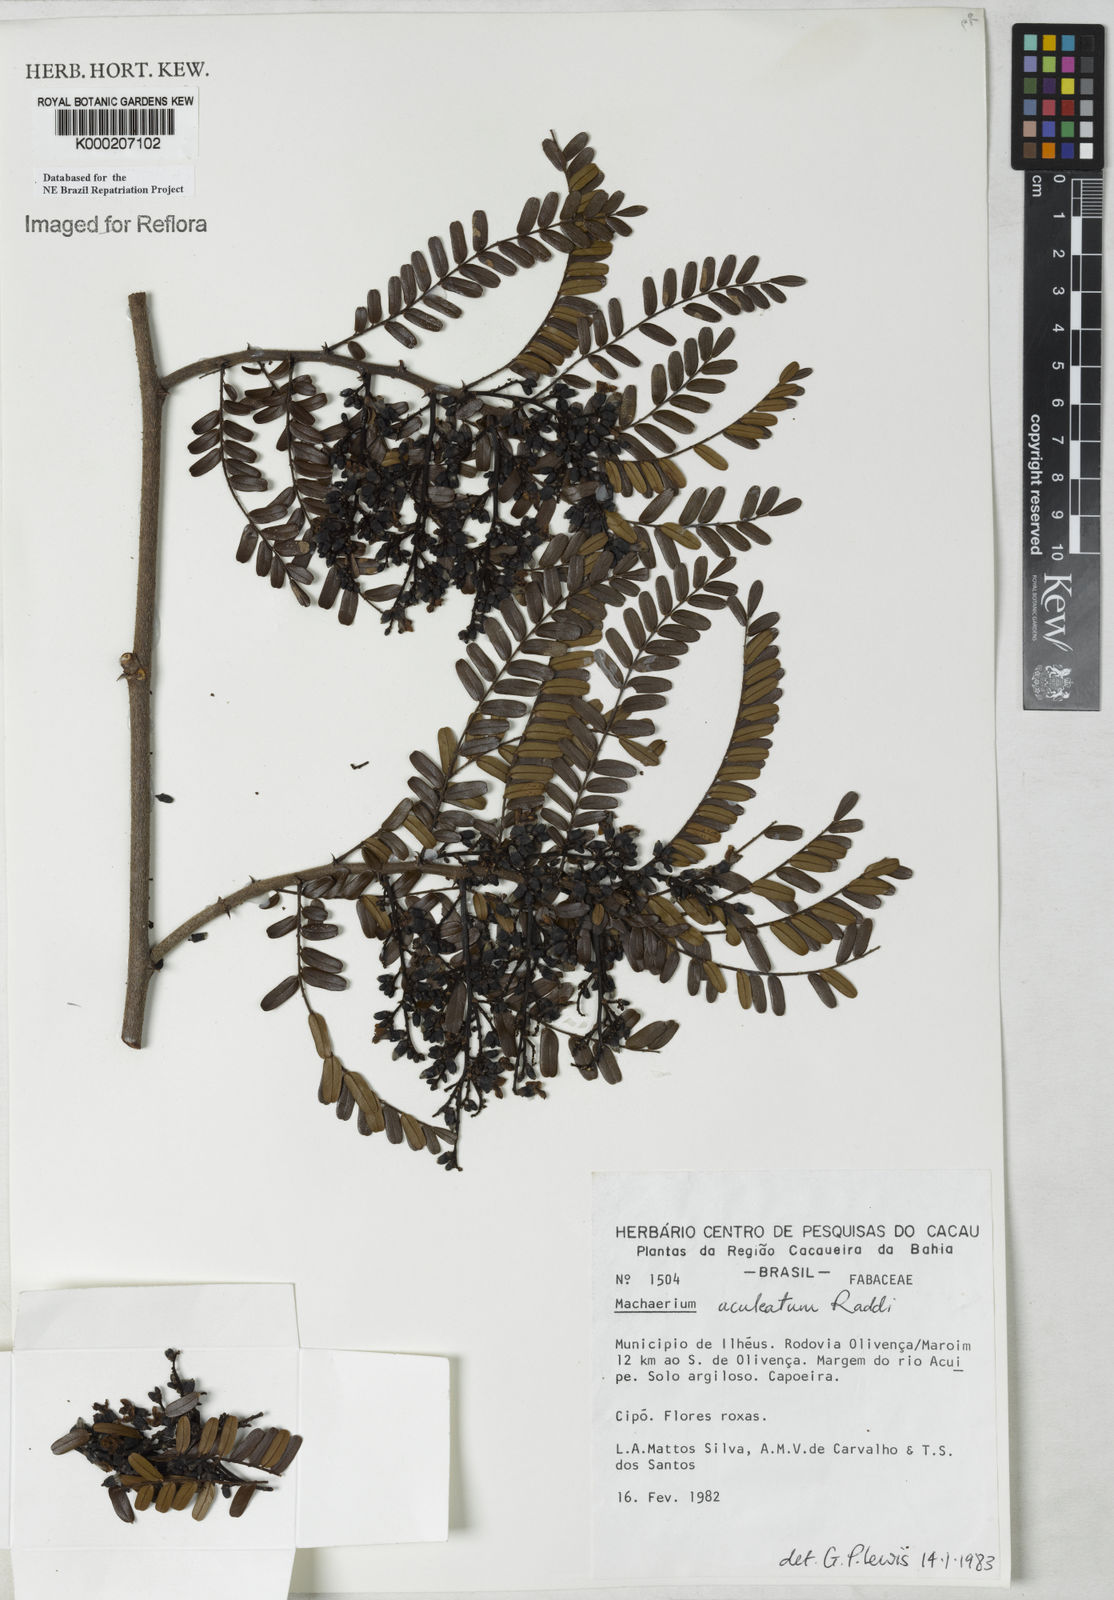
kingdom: Plantae
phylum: Tracheophyta
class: Magnoliopsida
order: Fabales
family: Fabaceae
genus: Machaerium
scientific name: Machaerium
